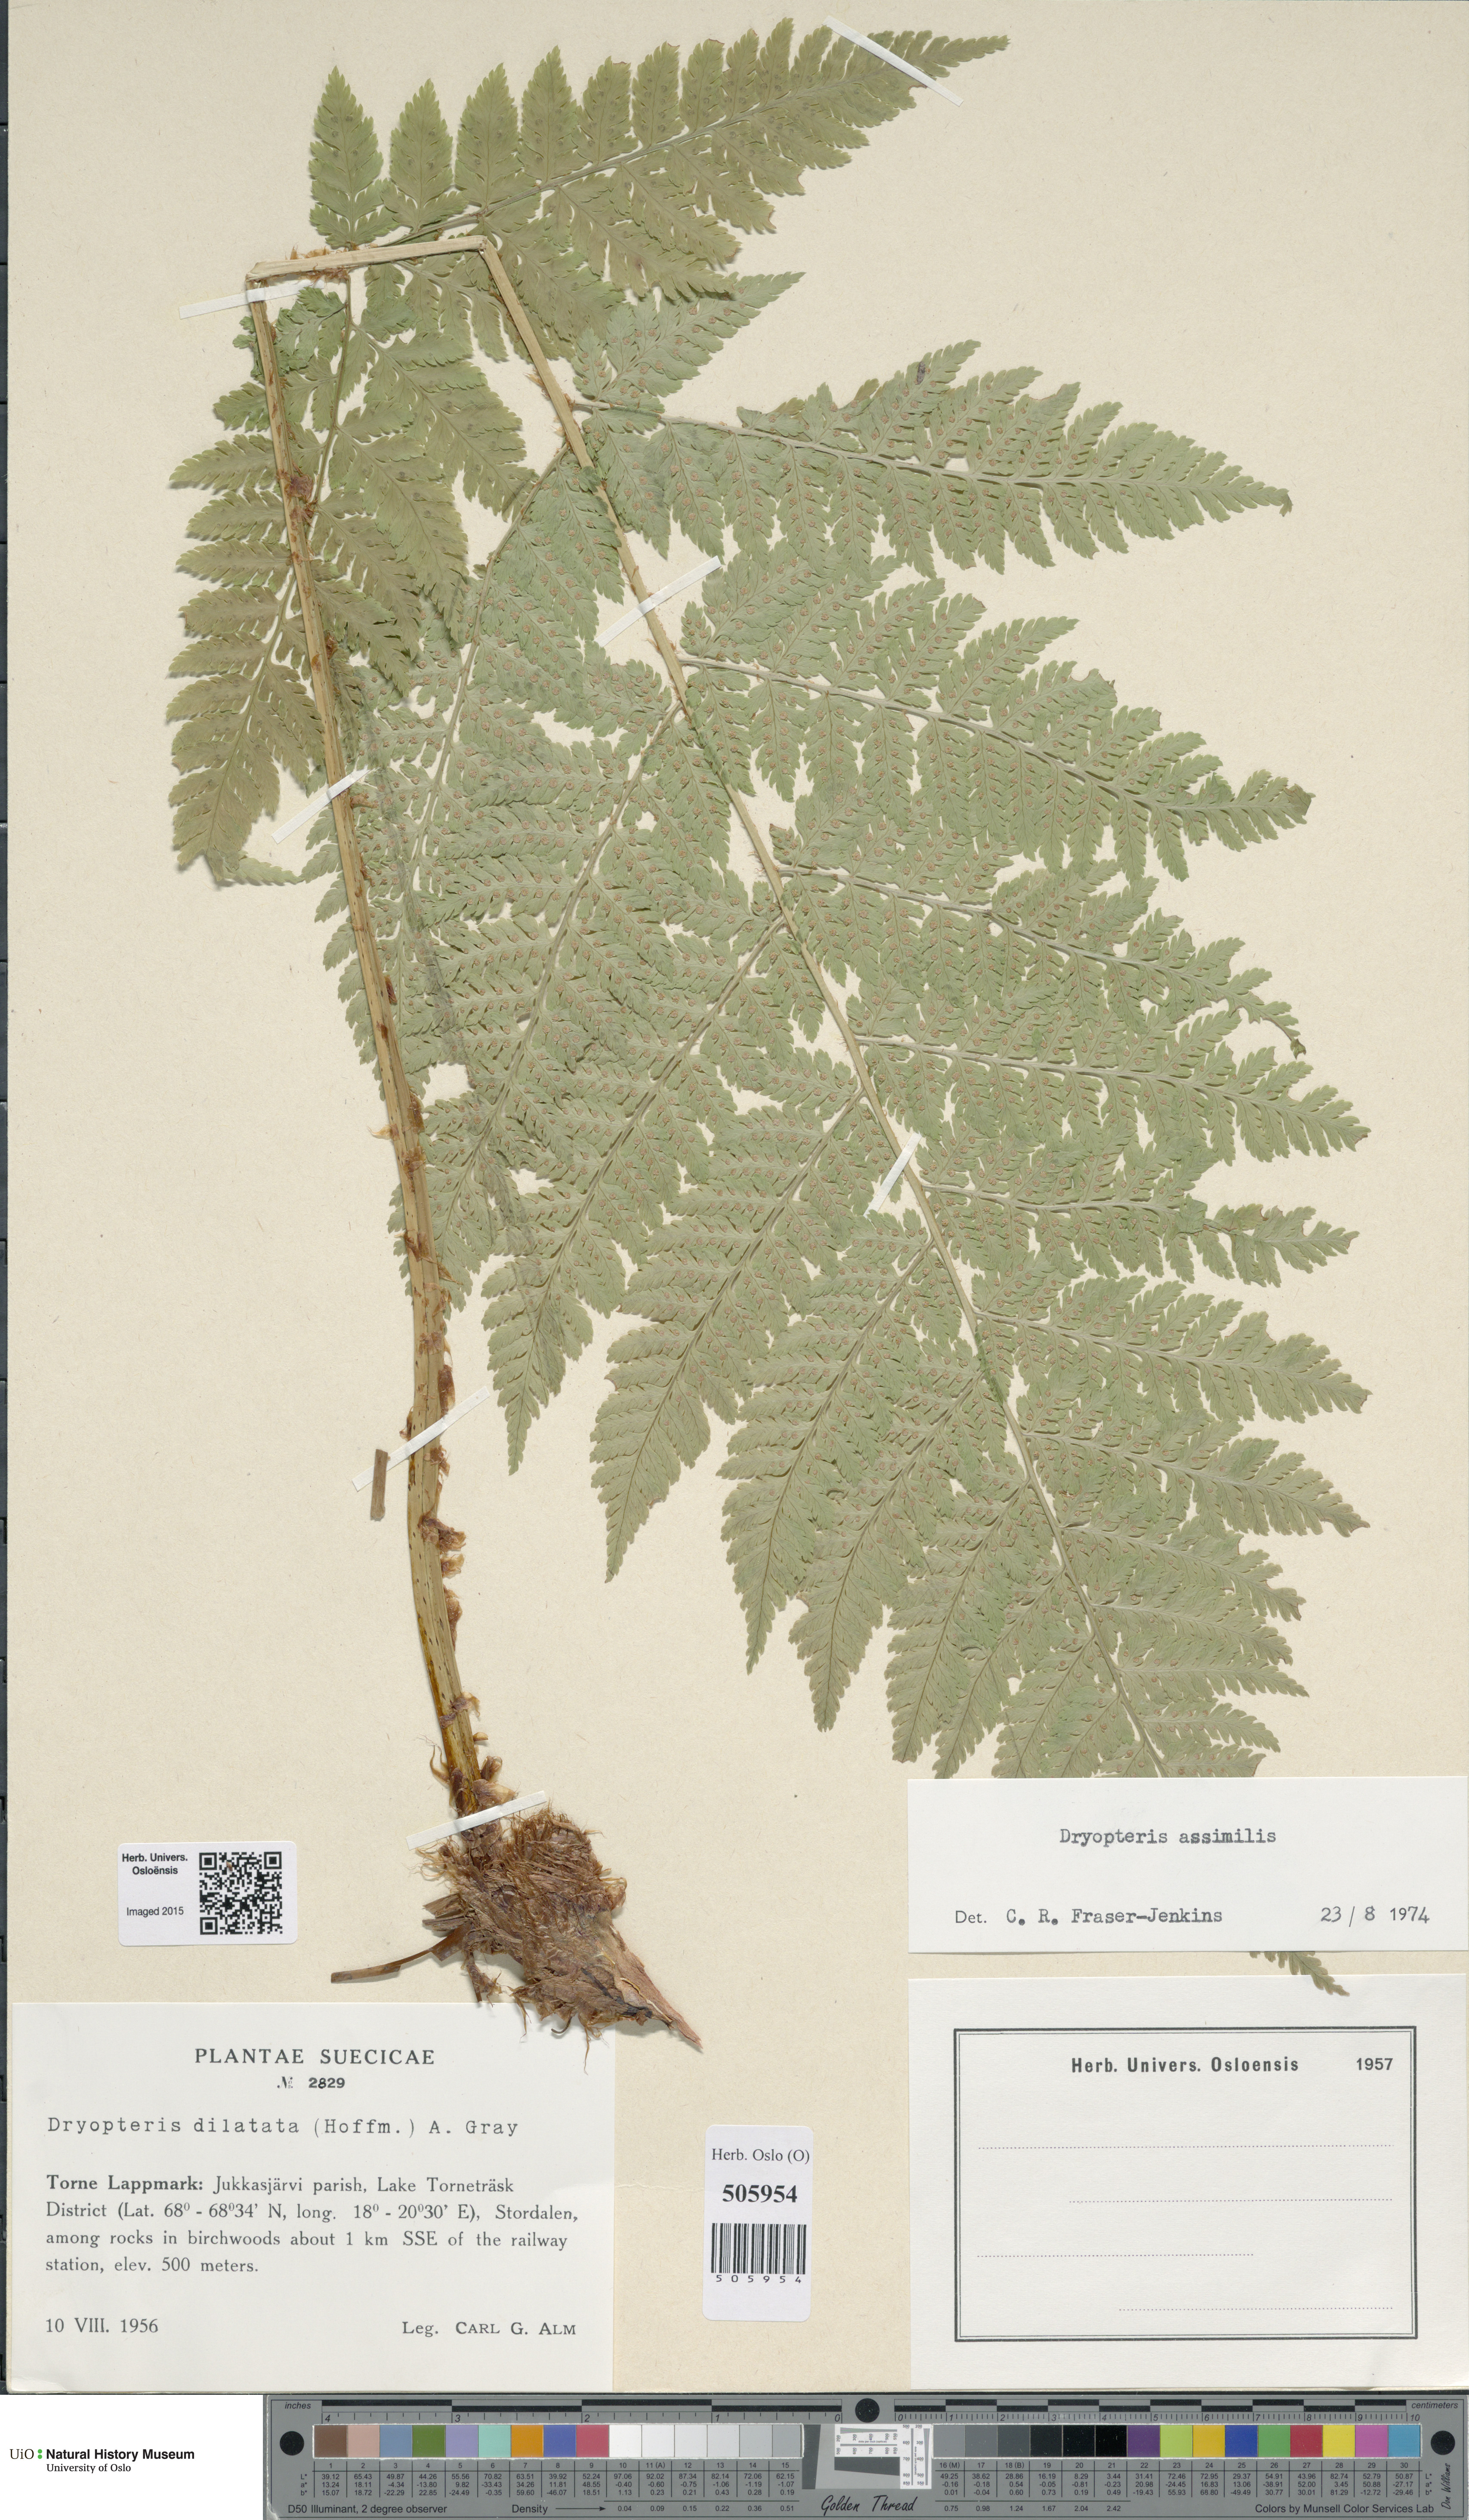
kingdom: Plantae
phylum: Tracheophyta
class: Polypodiopsida
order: Polypodiales
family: Dryopteridaceae
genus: Dryopteris
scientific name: Dryopteris expansa
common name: Northern buckler fern
